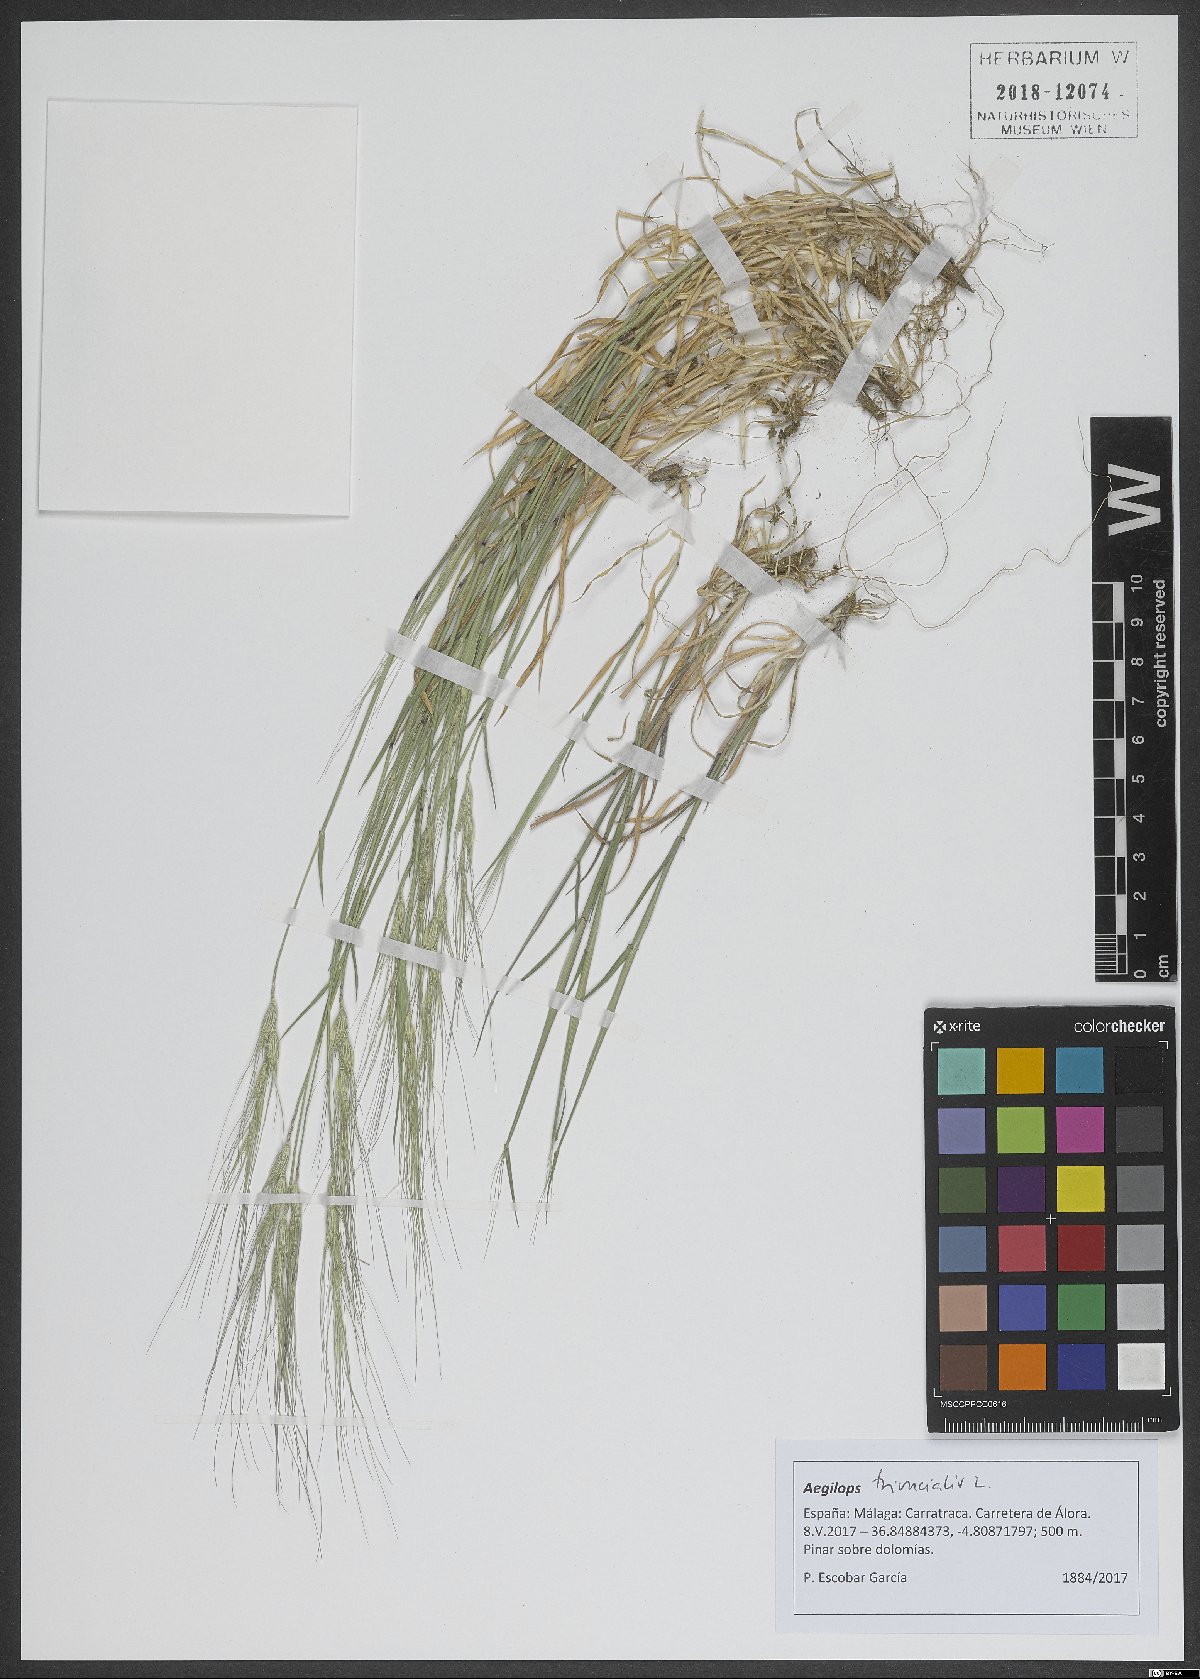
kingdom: Plantae
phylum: Tracheophyta
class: Liliopsida
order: Poales
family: Poaceae
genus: Aegilops
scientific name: Aegilops triuncialis
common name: Barb goat grass
